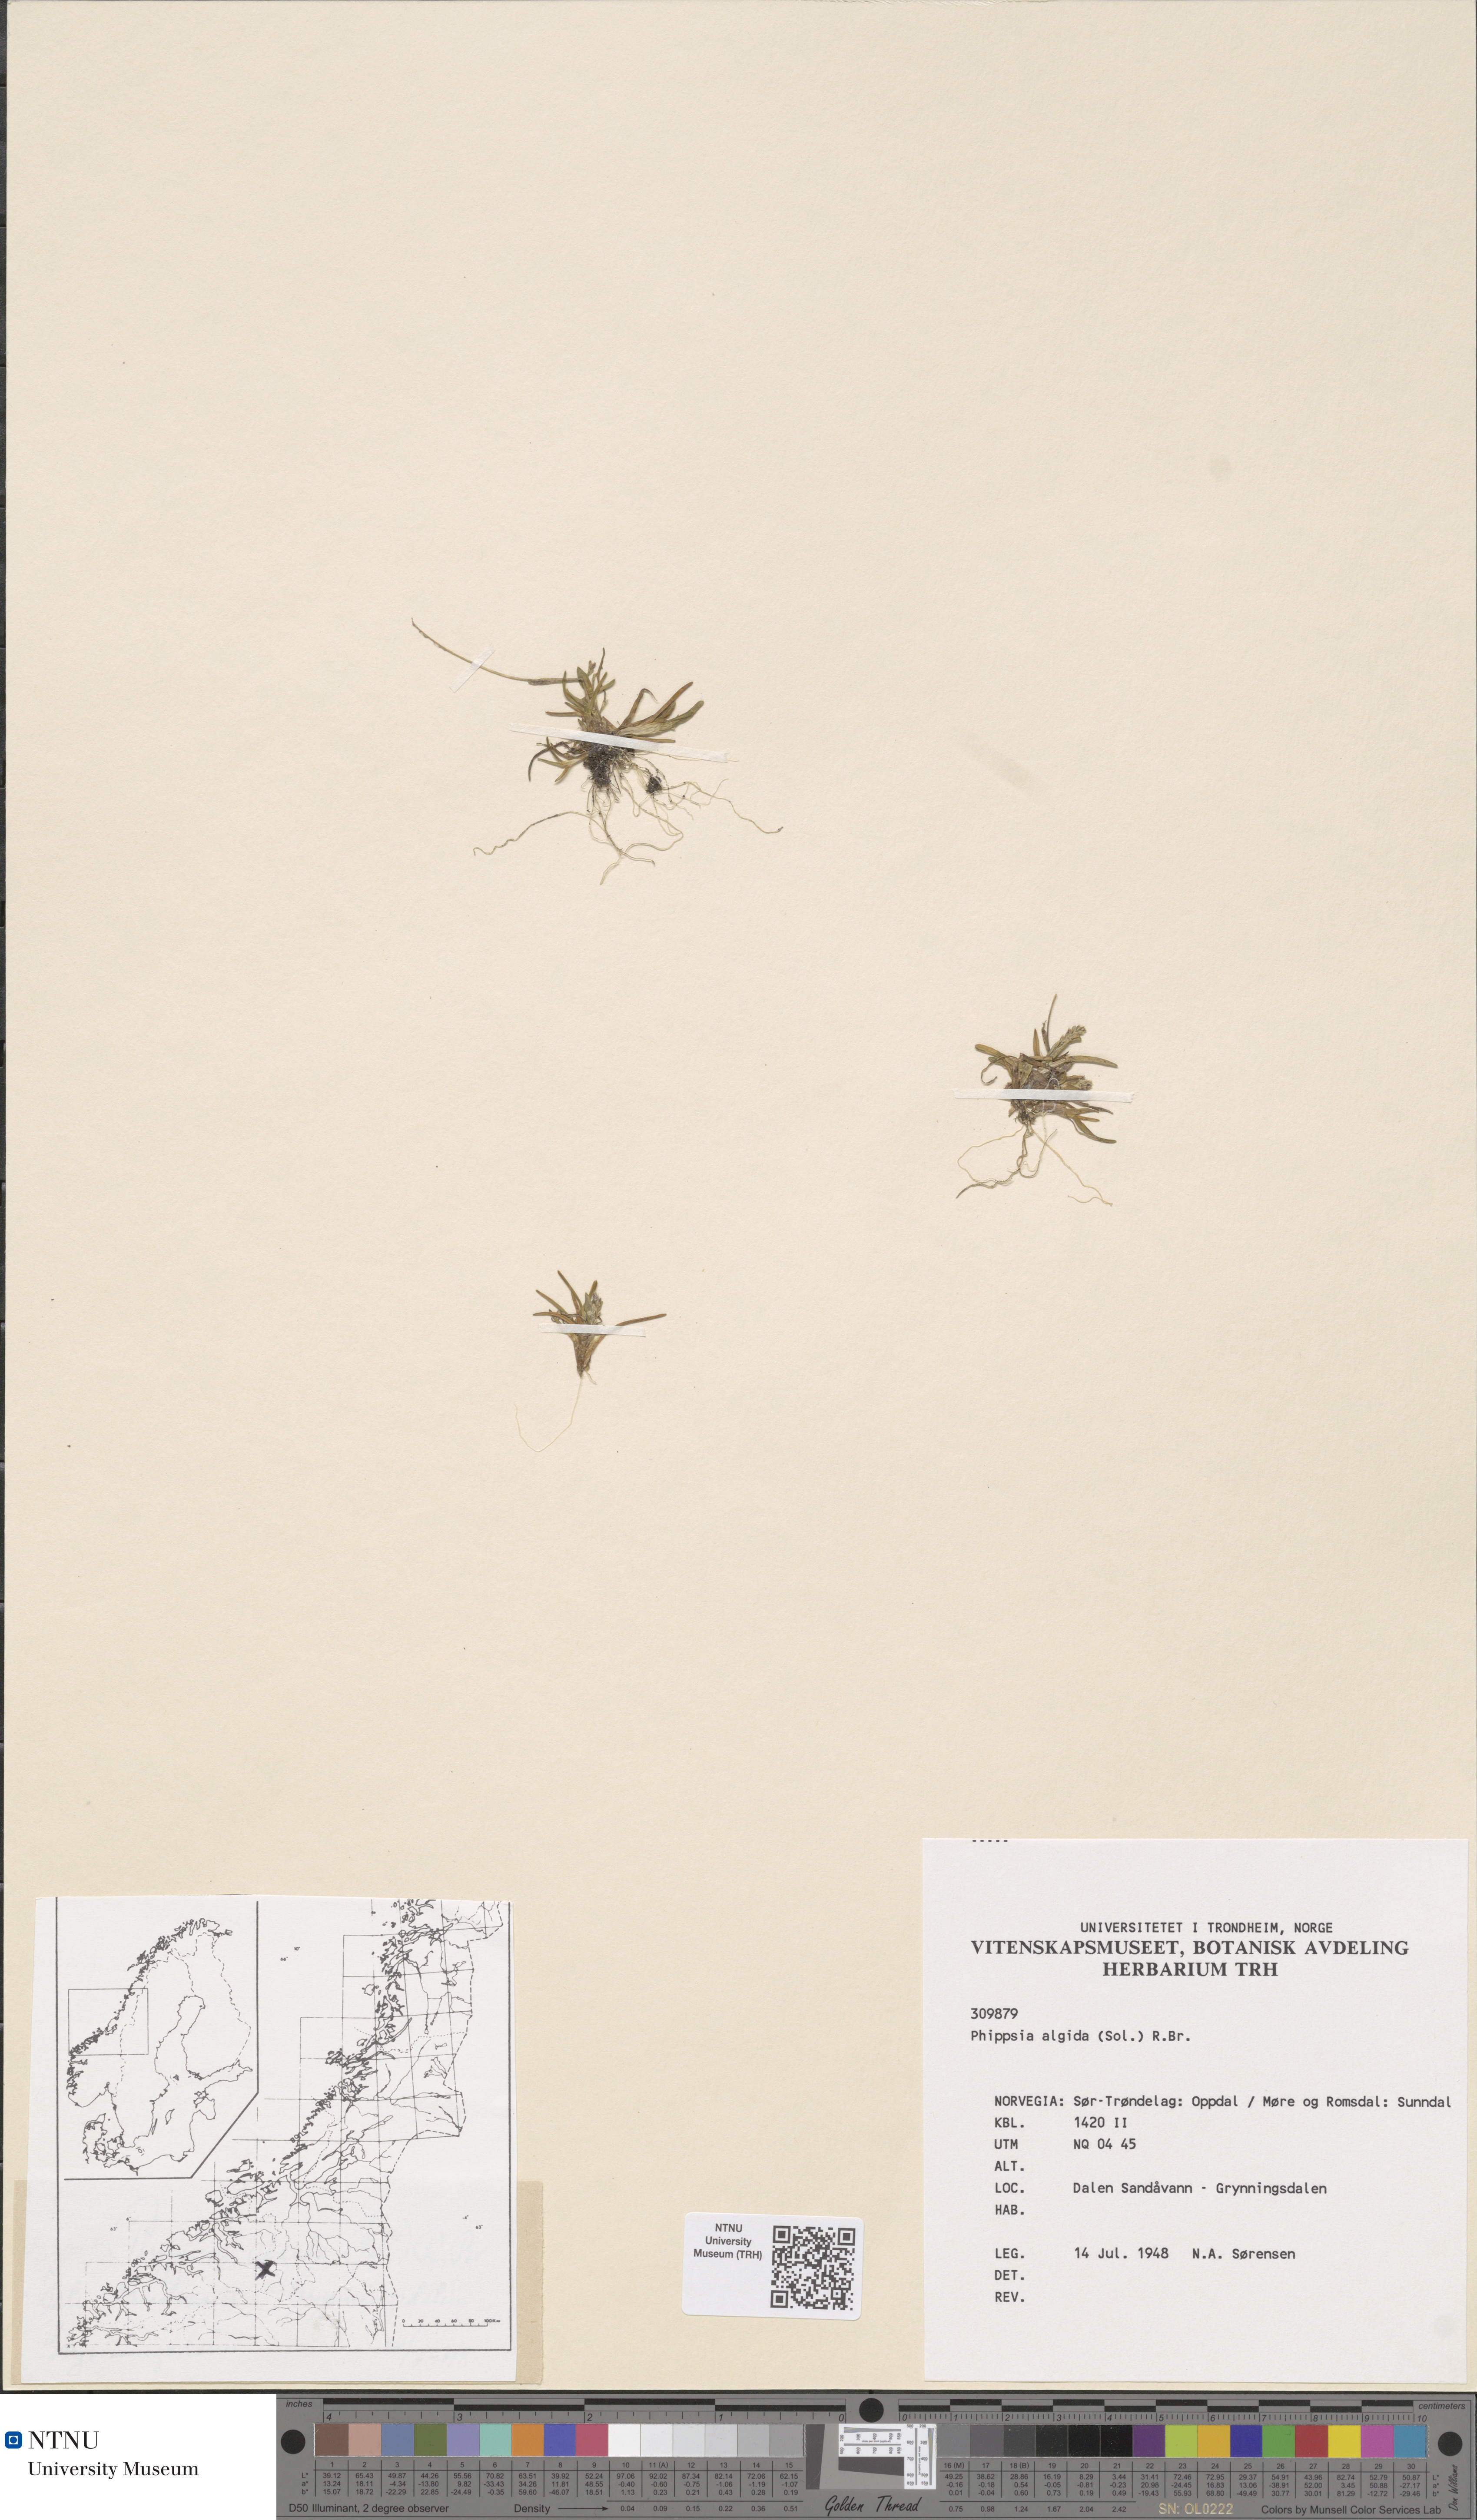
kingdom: Plantae
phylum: Tracheophyta
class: Liliopsida
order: Poales
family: Poaceae
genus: Phippsia
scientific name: Phippsia algida
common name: Ice grass
